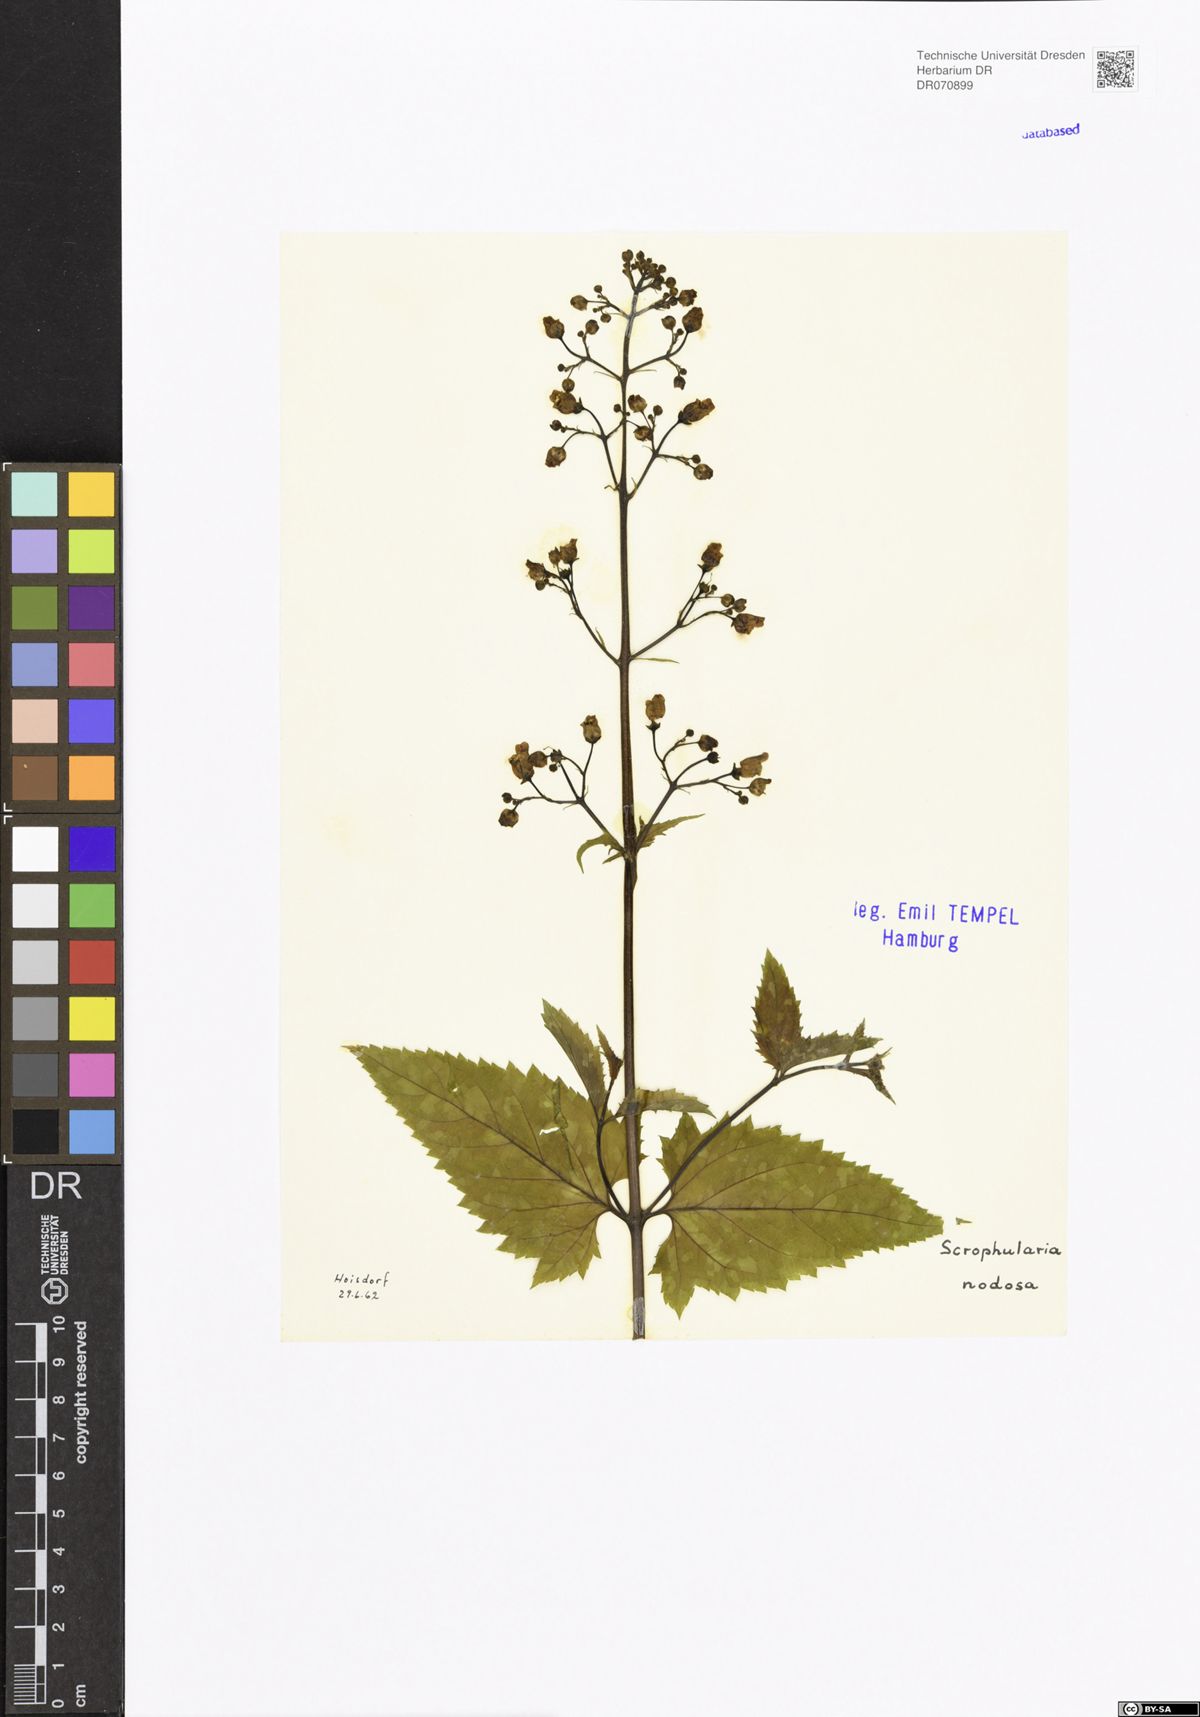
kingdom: Plantae
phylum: Tracheophyta
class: Magnoliopsida
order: Lamiales
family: Scrophulariaceae
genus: Scrophularia
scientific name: Scrophularia nodosa
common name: Common figwort
